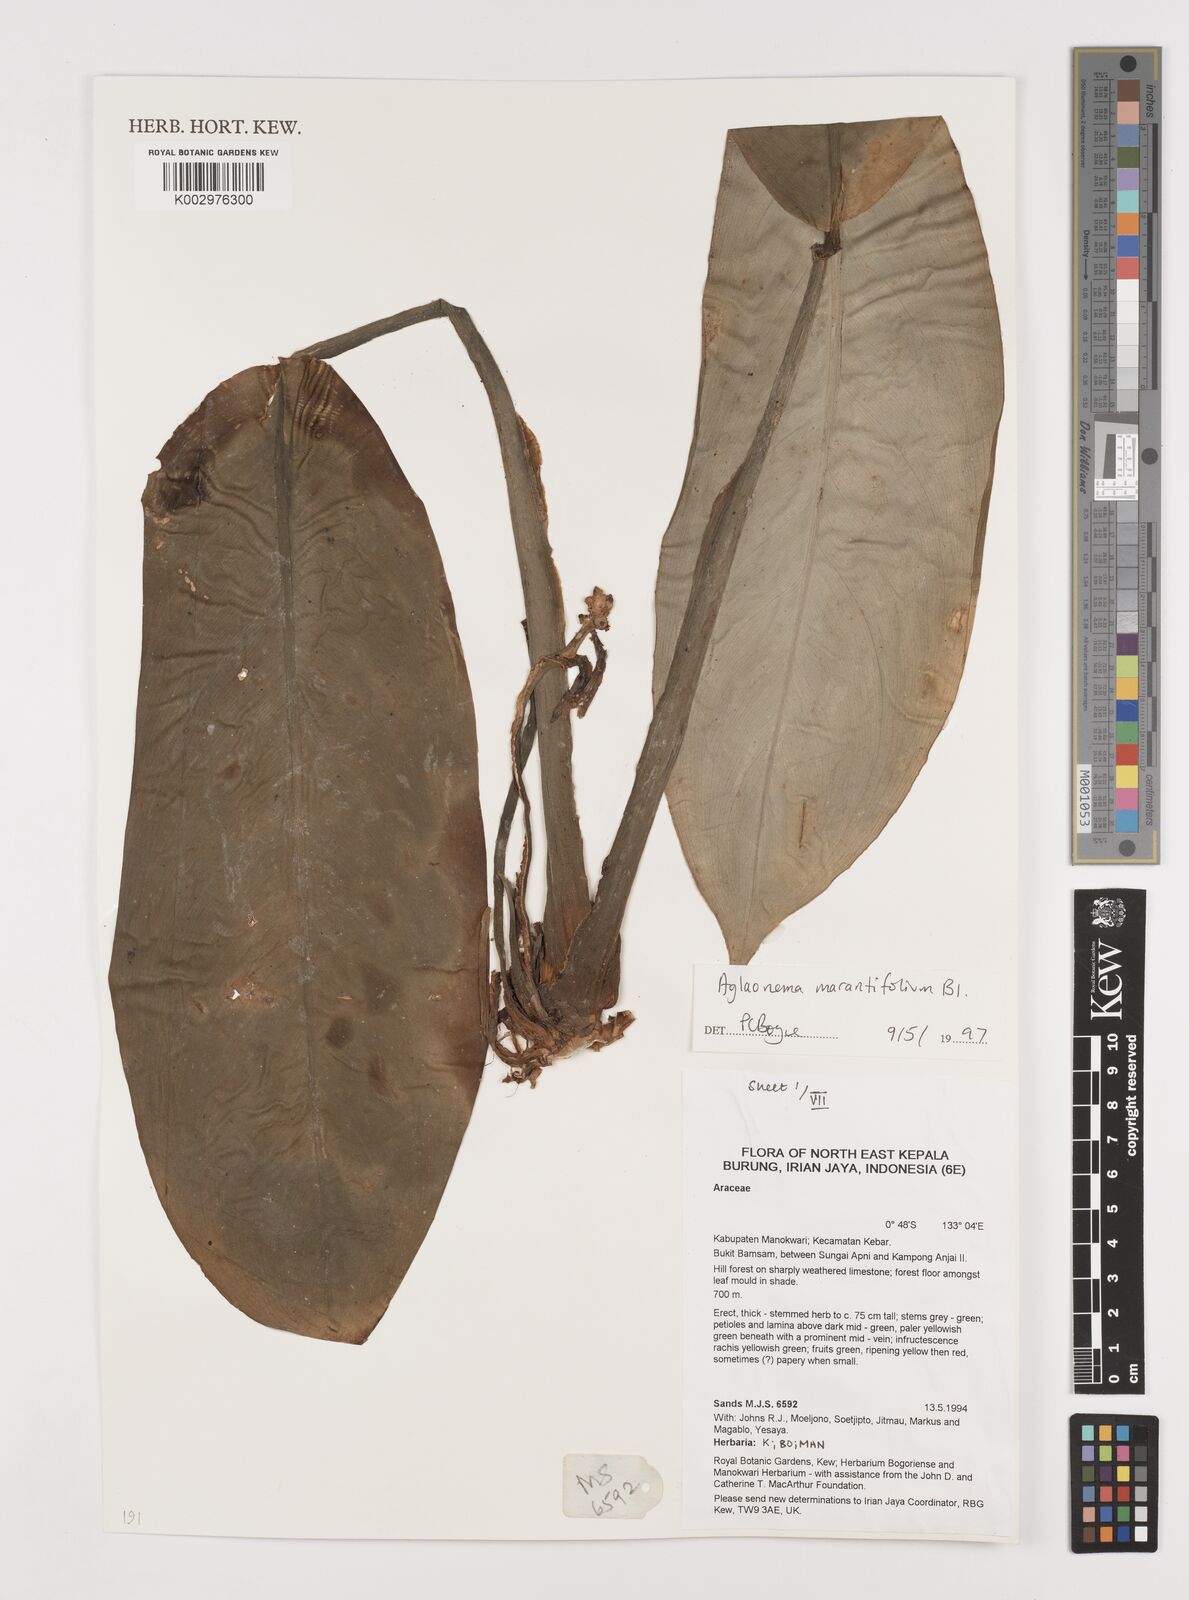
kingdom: Plantae
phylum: Tracheophyta
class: Liliopsida
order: Alismatales
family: Araceae
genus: Aglaonema
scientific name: Aglaonema marantifolium
